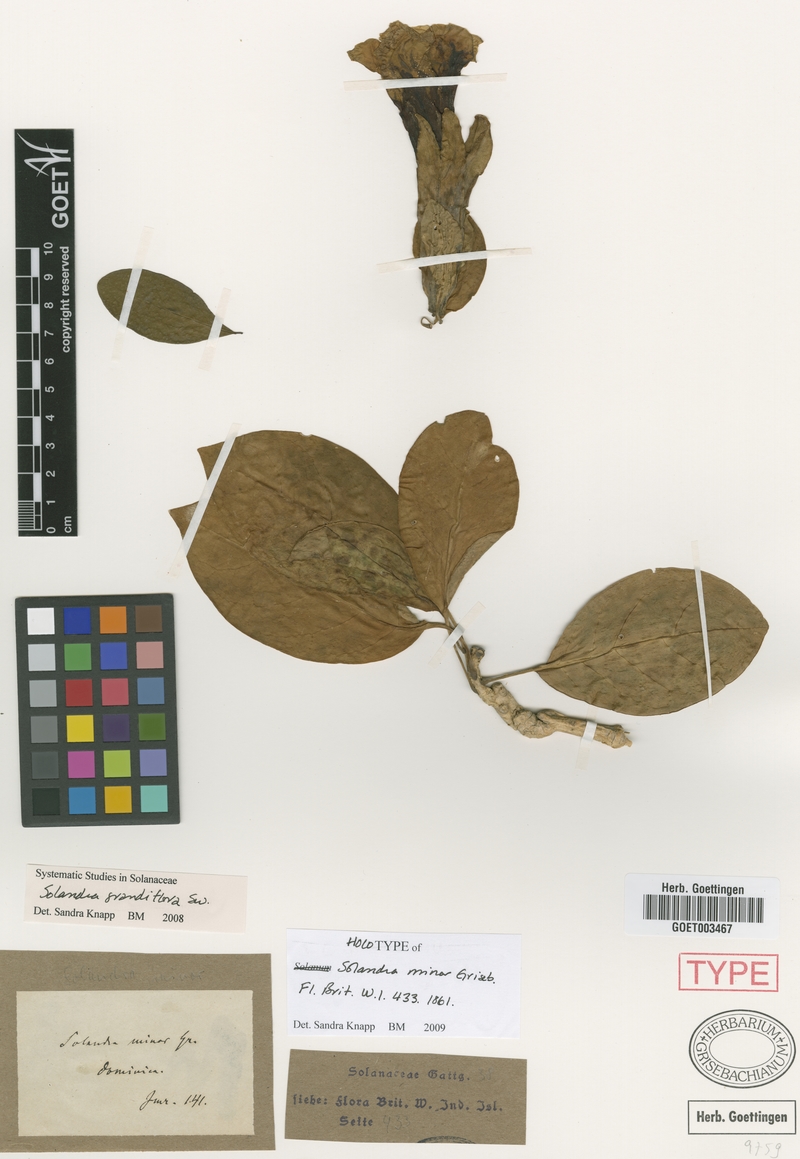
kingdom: Plantae
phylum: Tracheophyta
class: Magnoliopsida
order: Solanales
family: Solanaceae
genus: Solandra
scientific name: Solandra grandiflora
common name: Showy chalicevine
